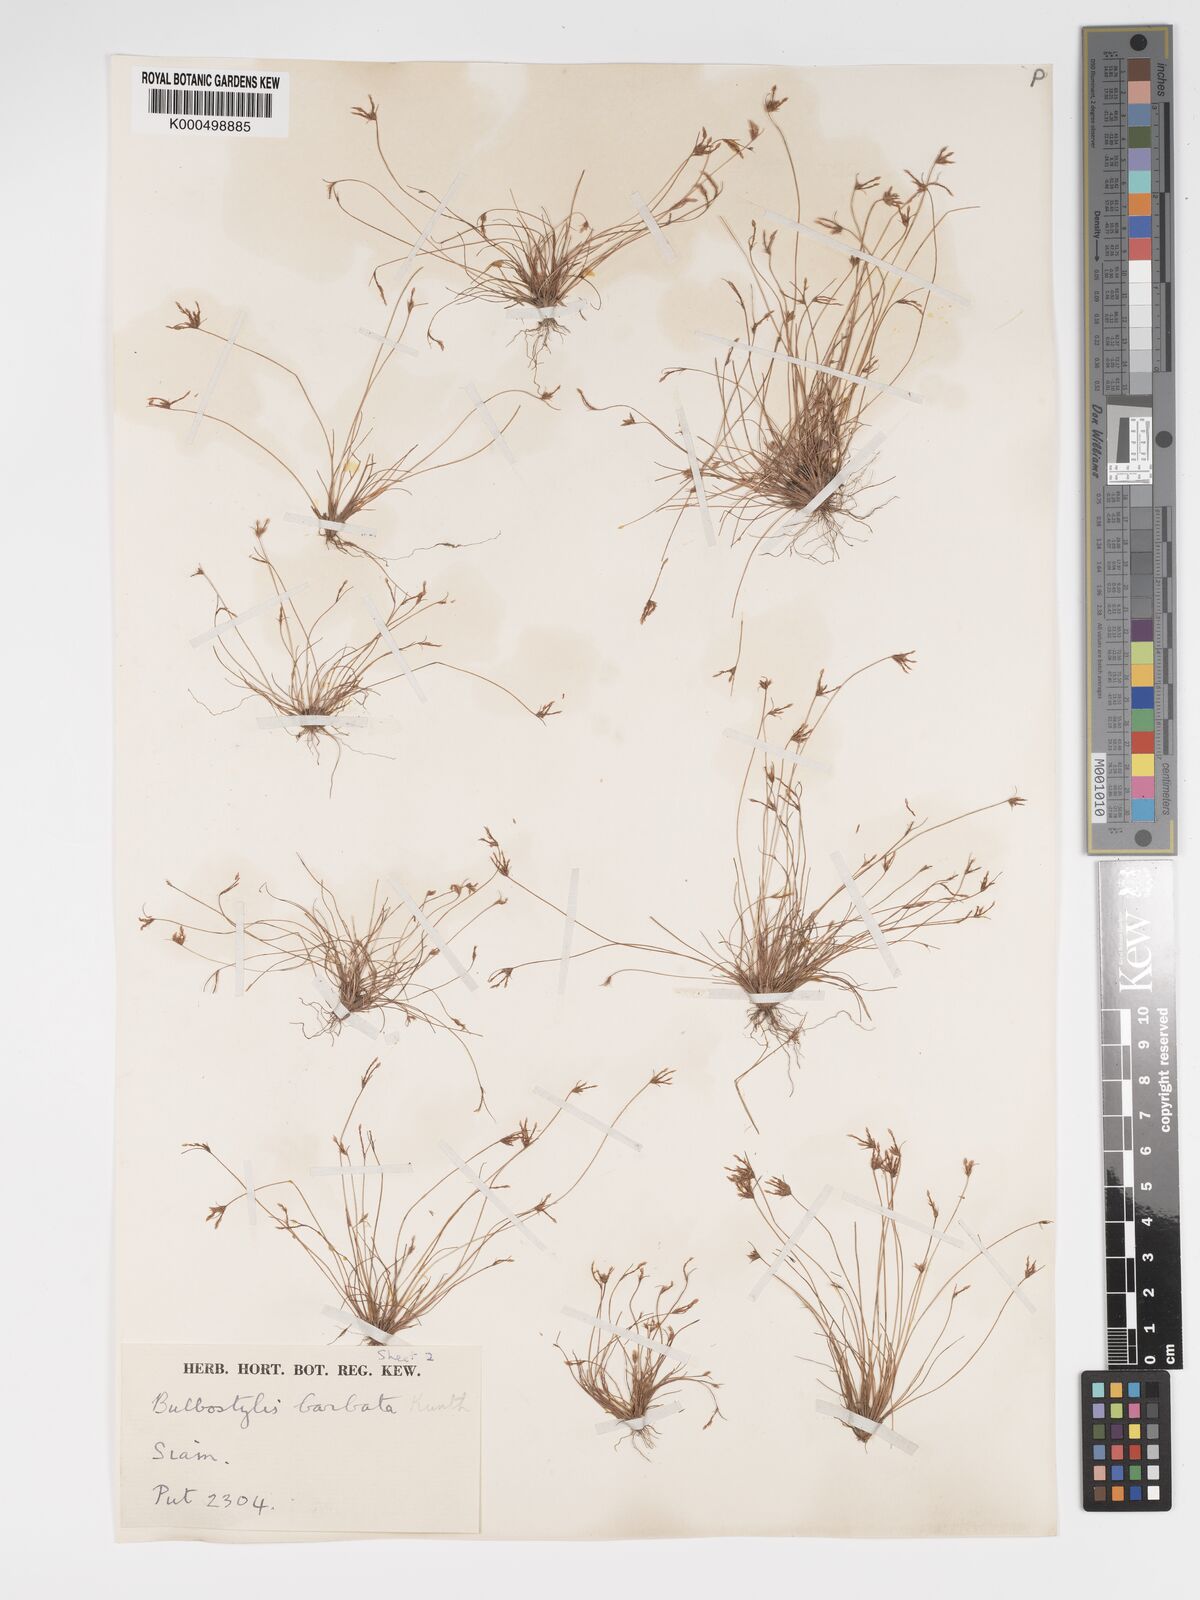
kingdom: Plantae
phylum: Tracheophyta
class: Liliopsida
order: Poales
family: Cyperaceae
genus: Bulbostylis
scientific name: Bulbostylis barbata
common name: Watergrass
